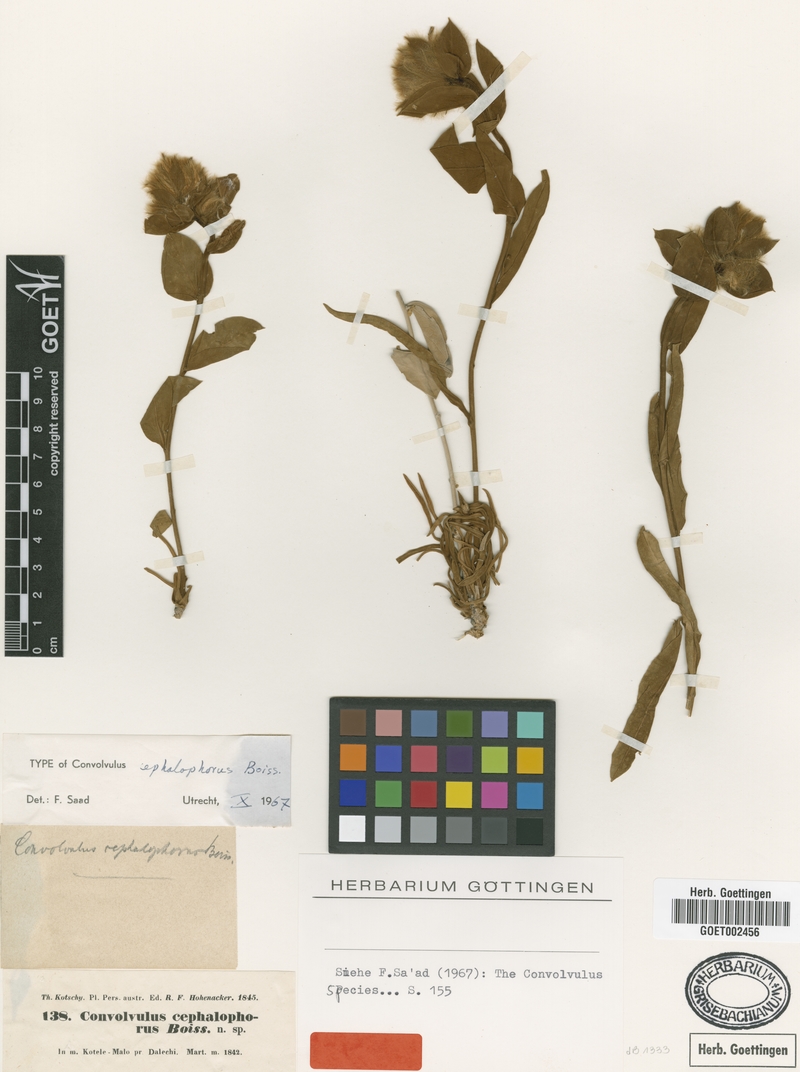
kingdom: Plantae
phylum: Tracheophyta
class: Magnoliopsida
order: Solanales
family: Convolvulaceae
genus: Convolvulus
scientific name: Convolvulus cephalophorus
